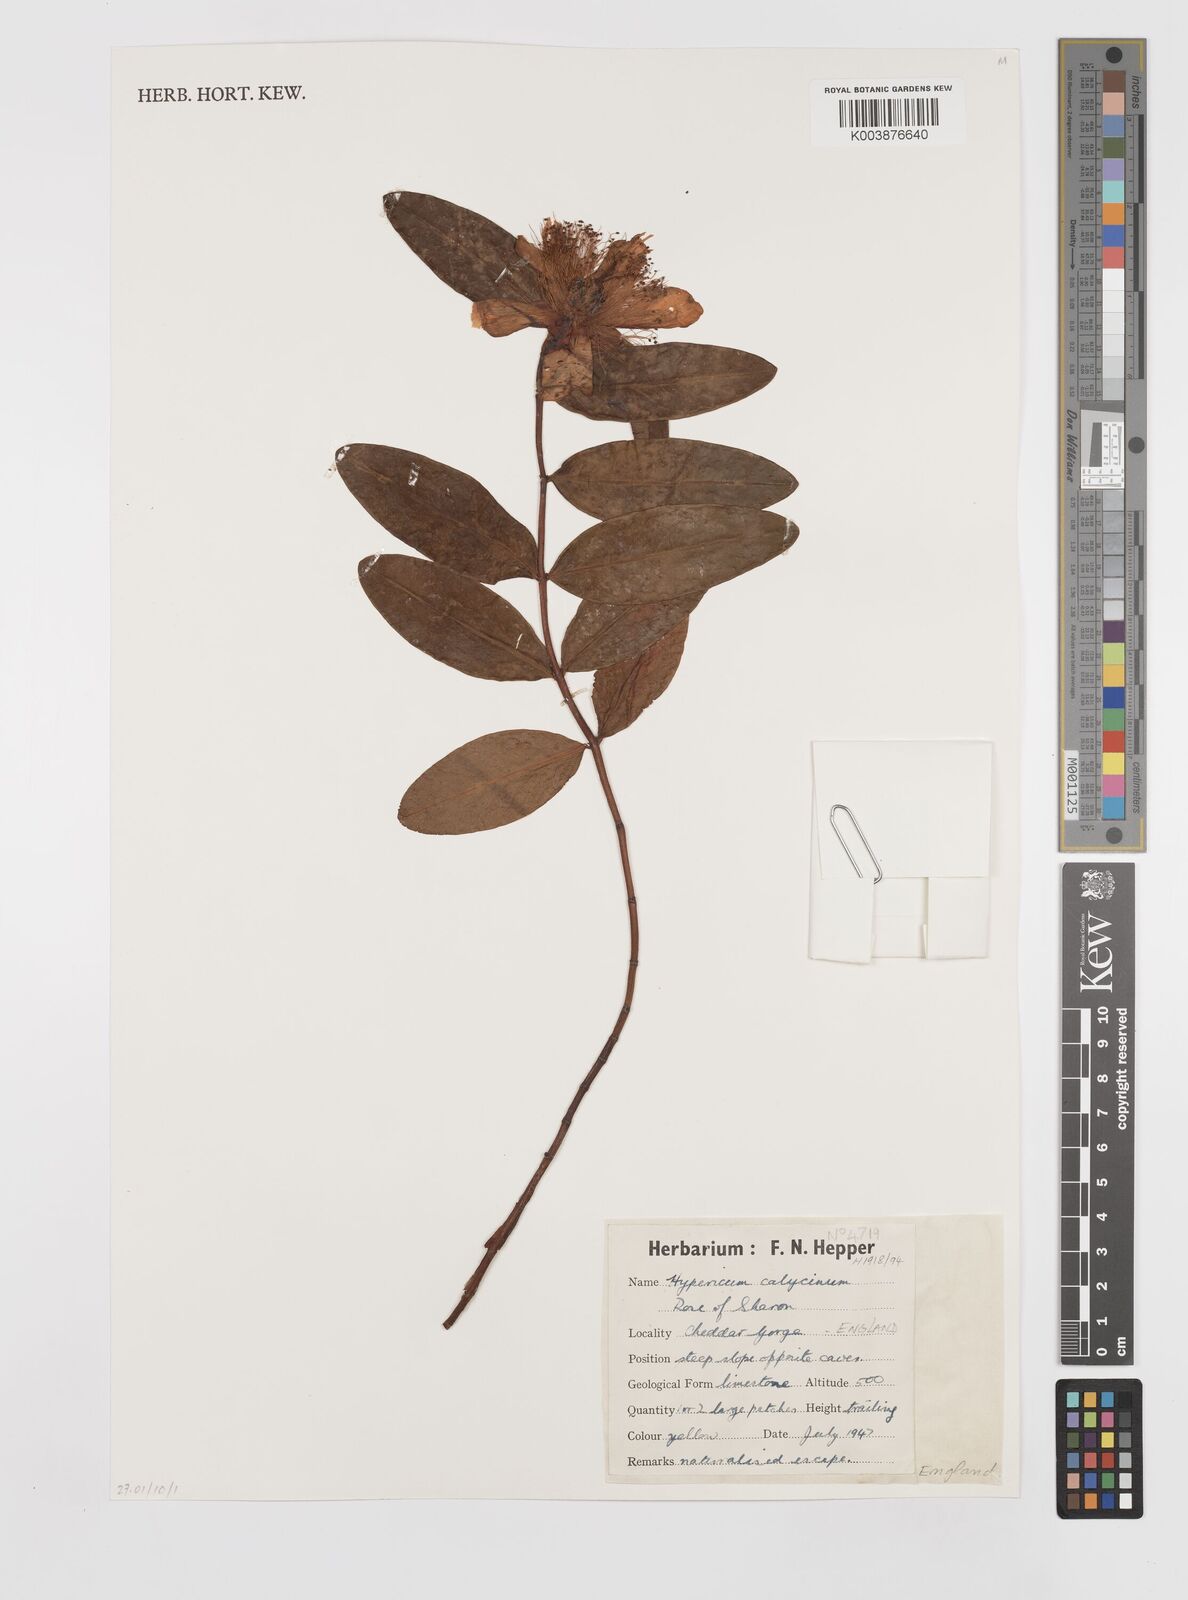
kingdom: Plantae
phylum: Tracheophyta
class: Magnoliopsida
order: Malpighiales
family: Hypericaceae
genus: Hypericum
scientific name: Hypericum calycinum
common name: Rose-of-sharon
